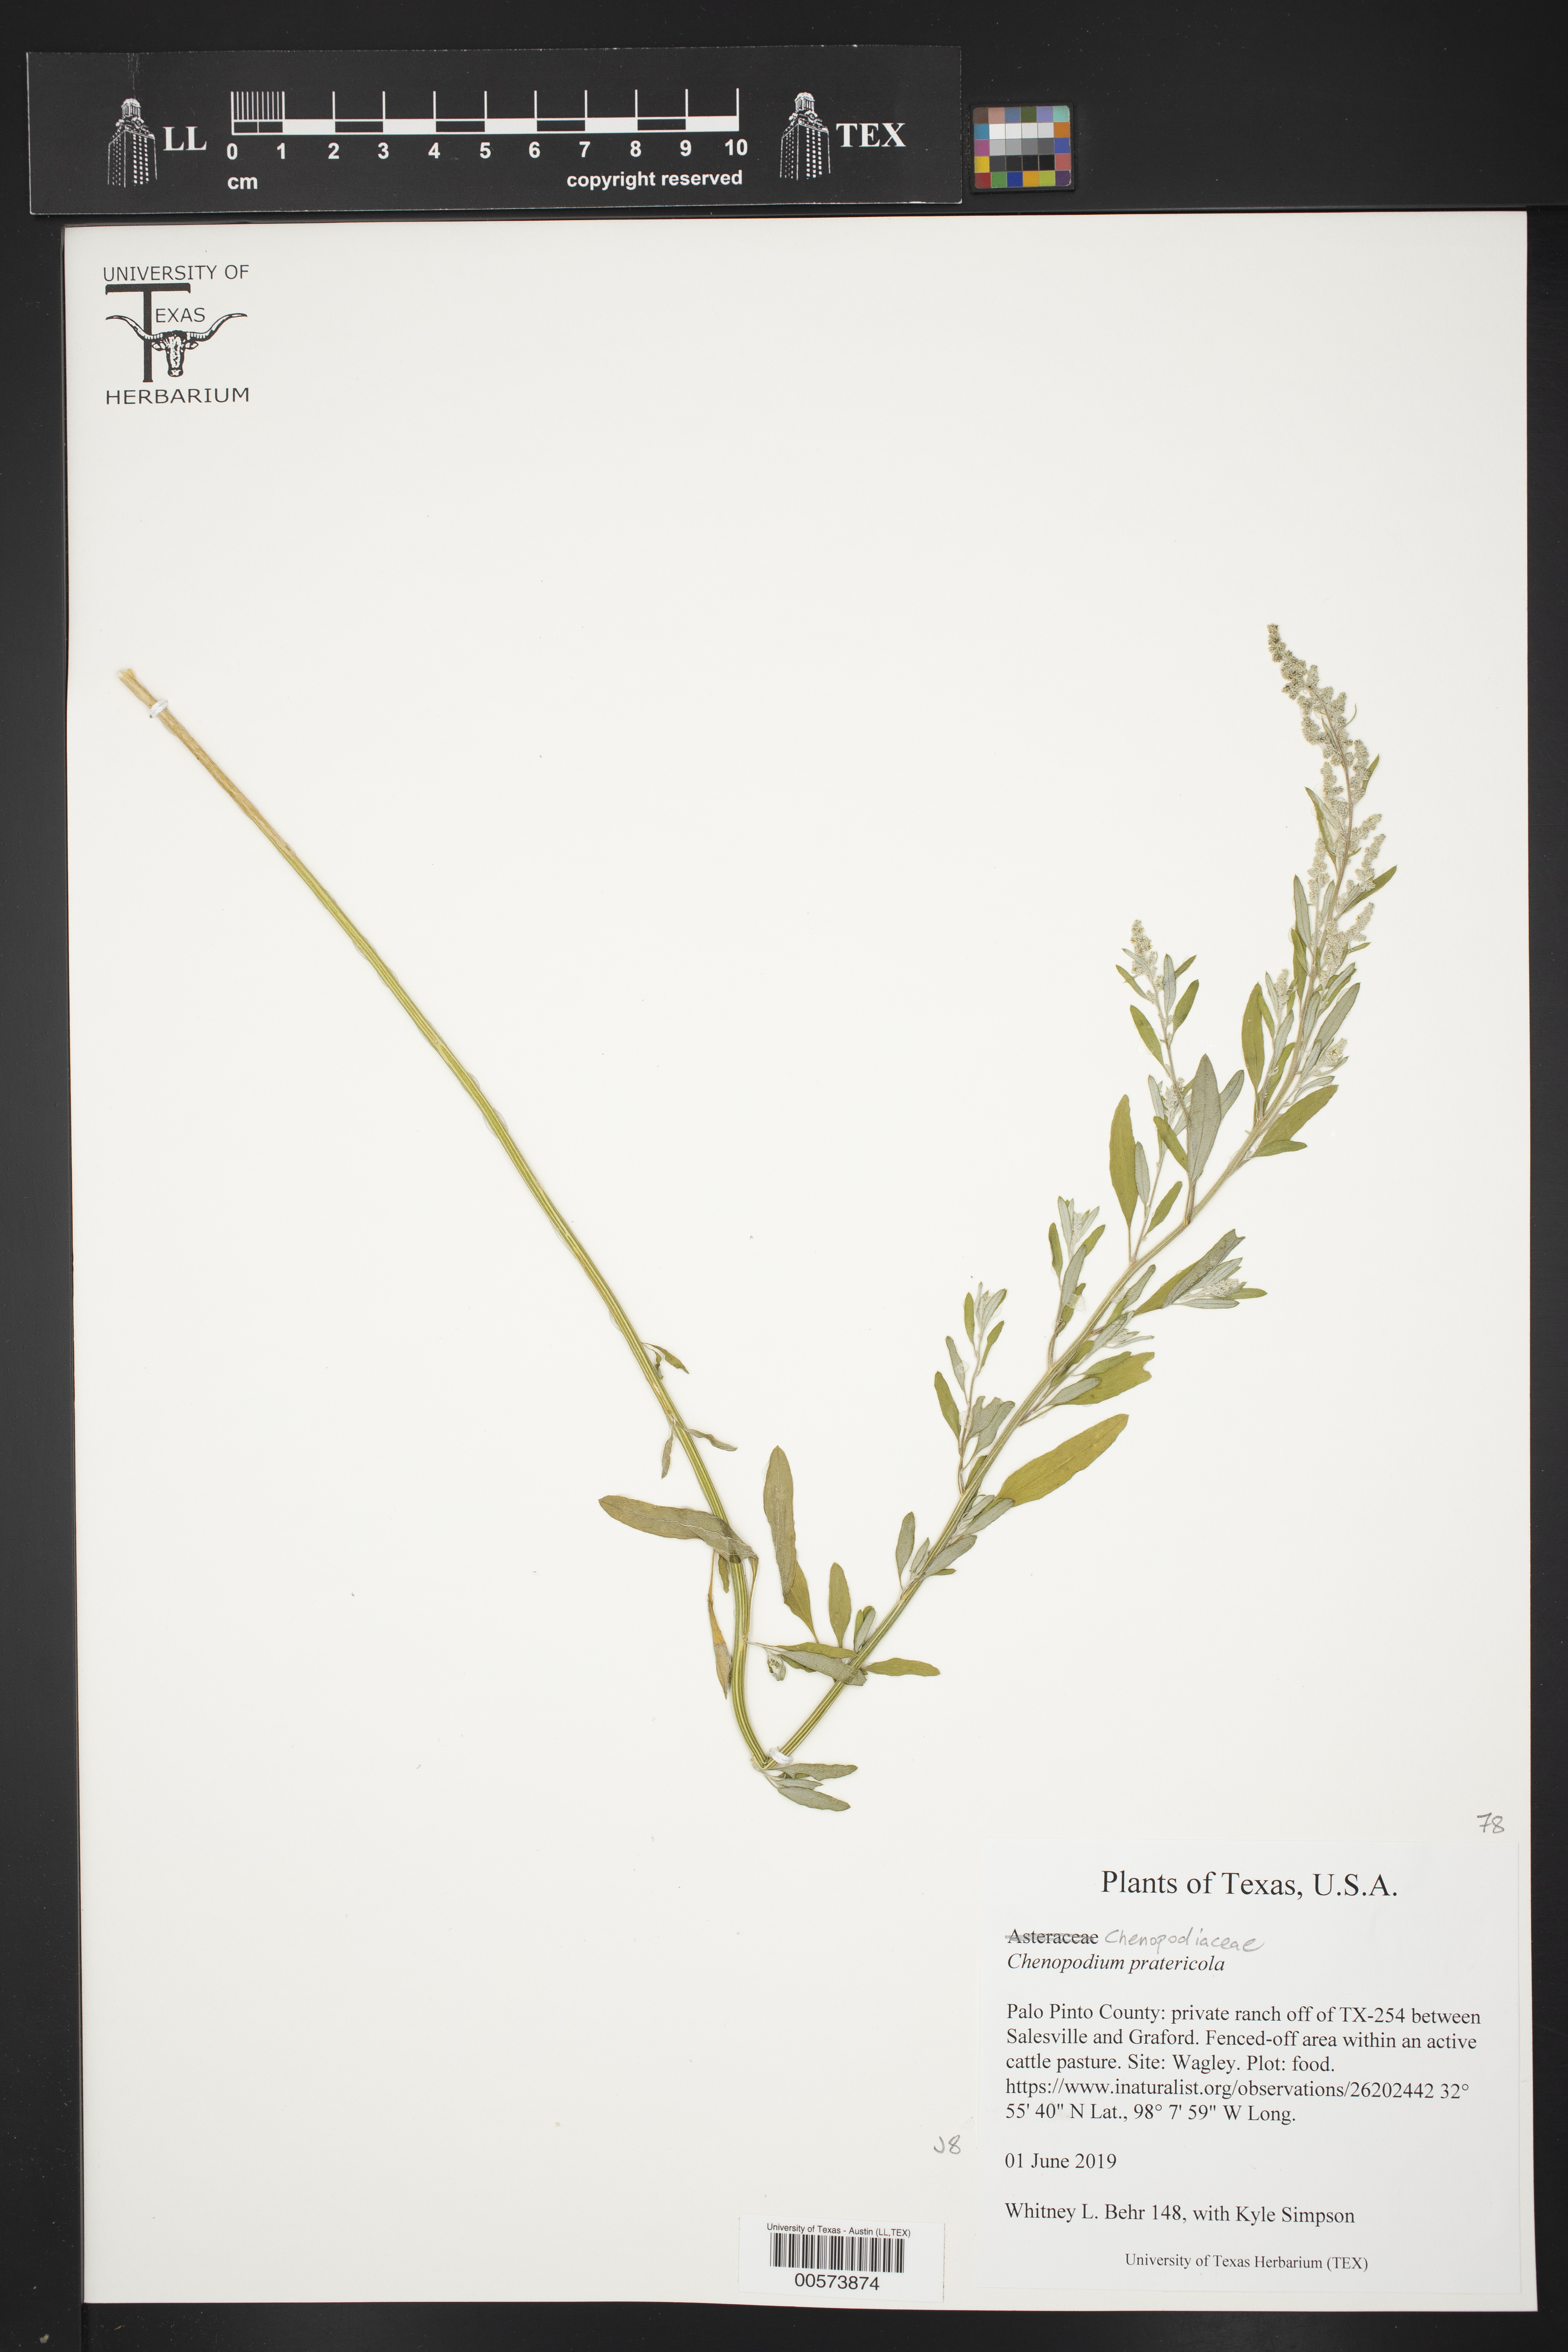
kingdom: Plantae
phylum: Tracheophyta
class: Magnoliopsida
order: Caryophyllales
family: Amaranthaceae
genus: Chenopodium
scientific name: Chenopodium pratericola
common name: Desert goosefoot
